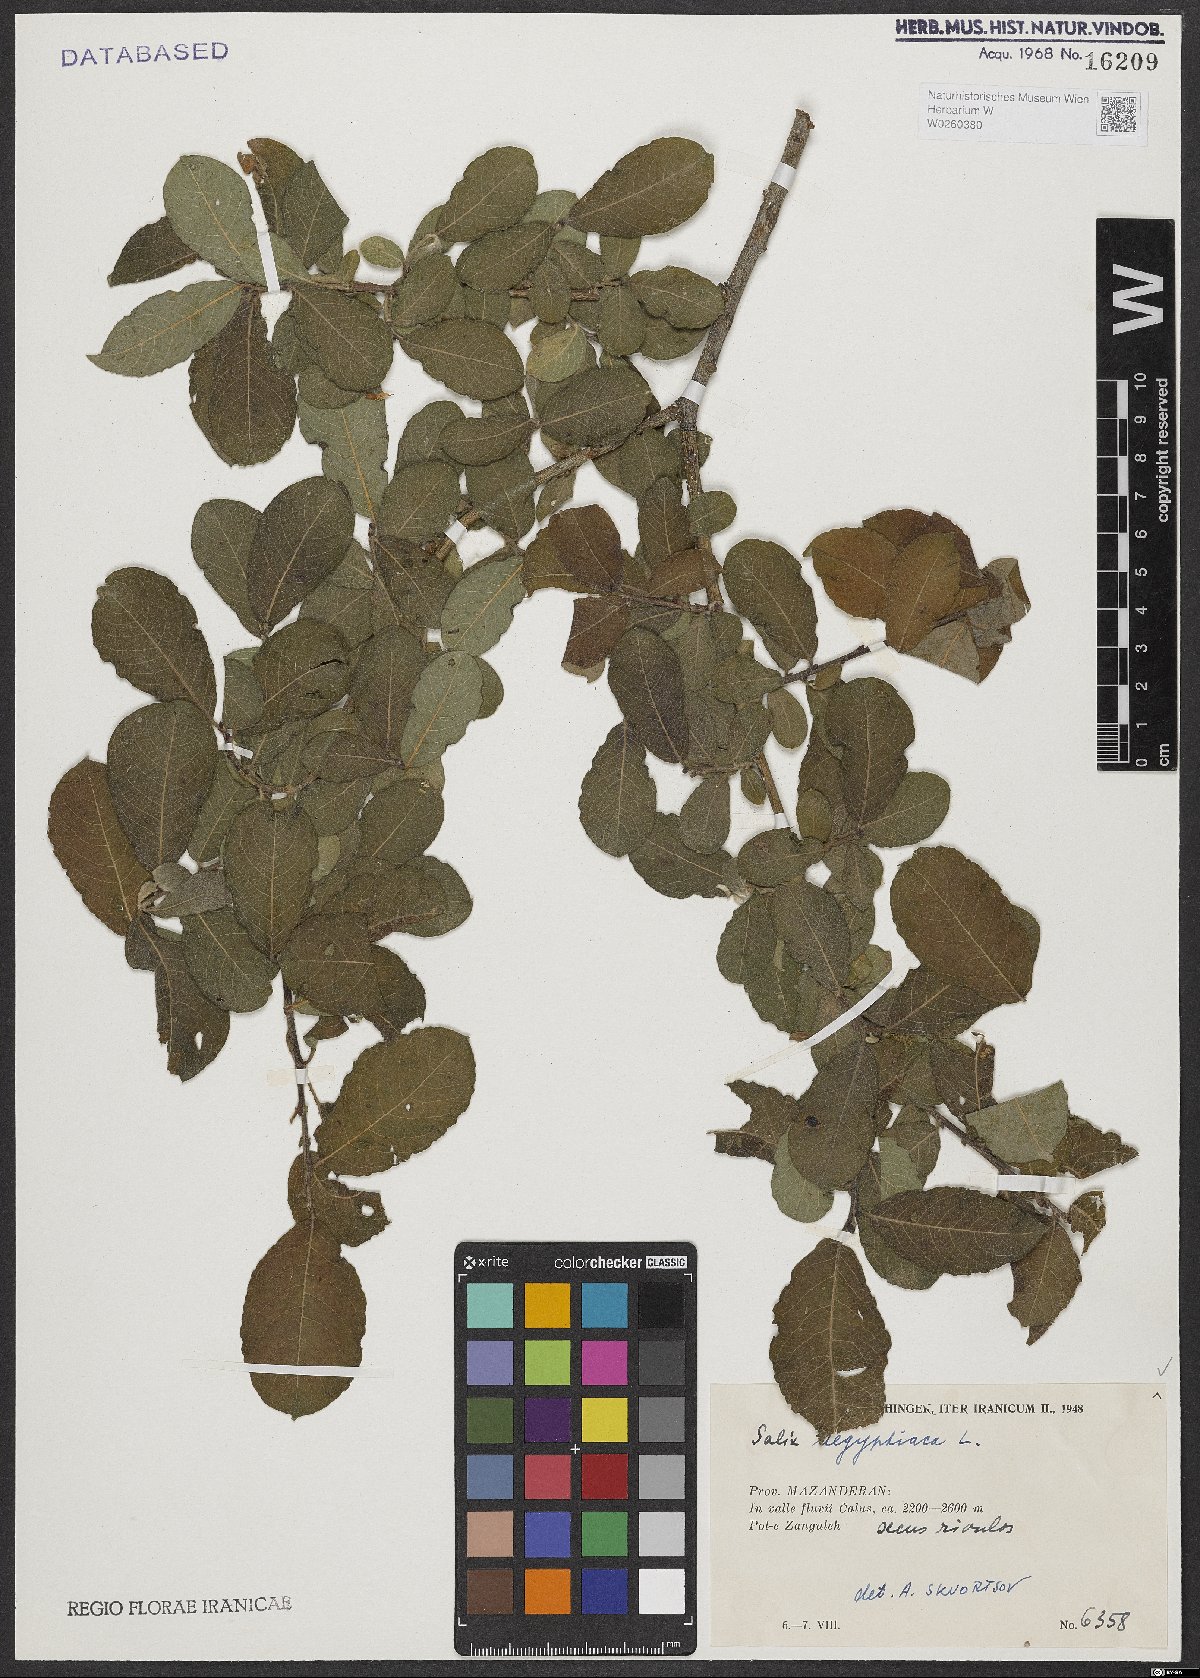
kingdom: Plantae
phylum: Tracheophyta
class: Magnoliopsida
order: Malpighiales
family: Salicaceae
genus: Salix
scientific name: Salix aegyptiaca
